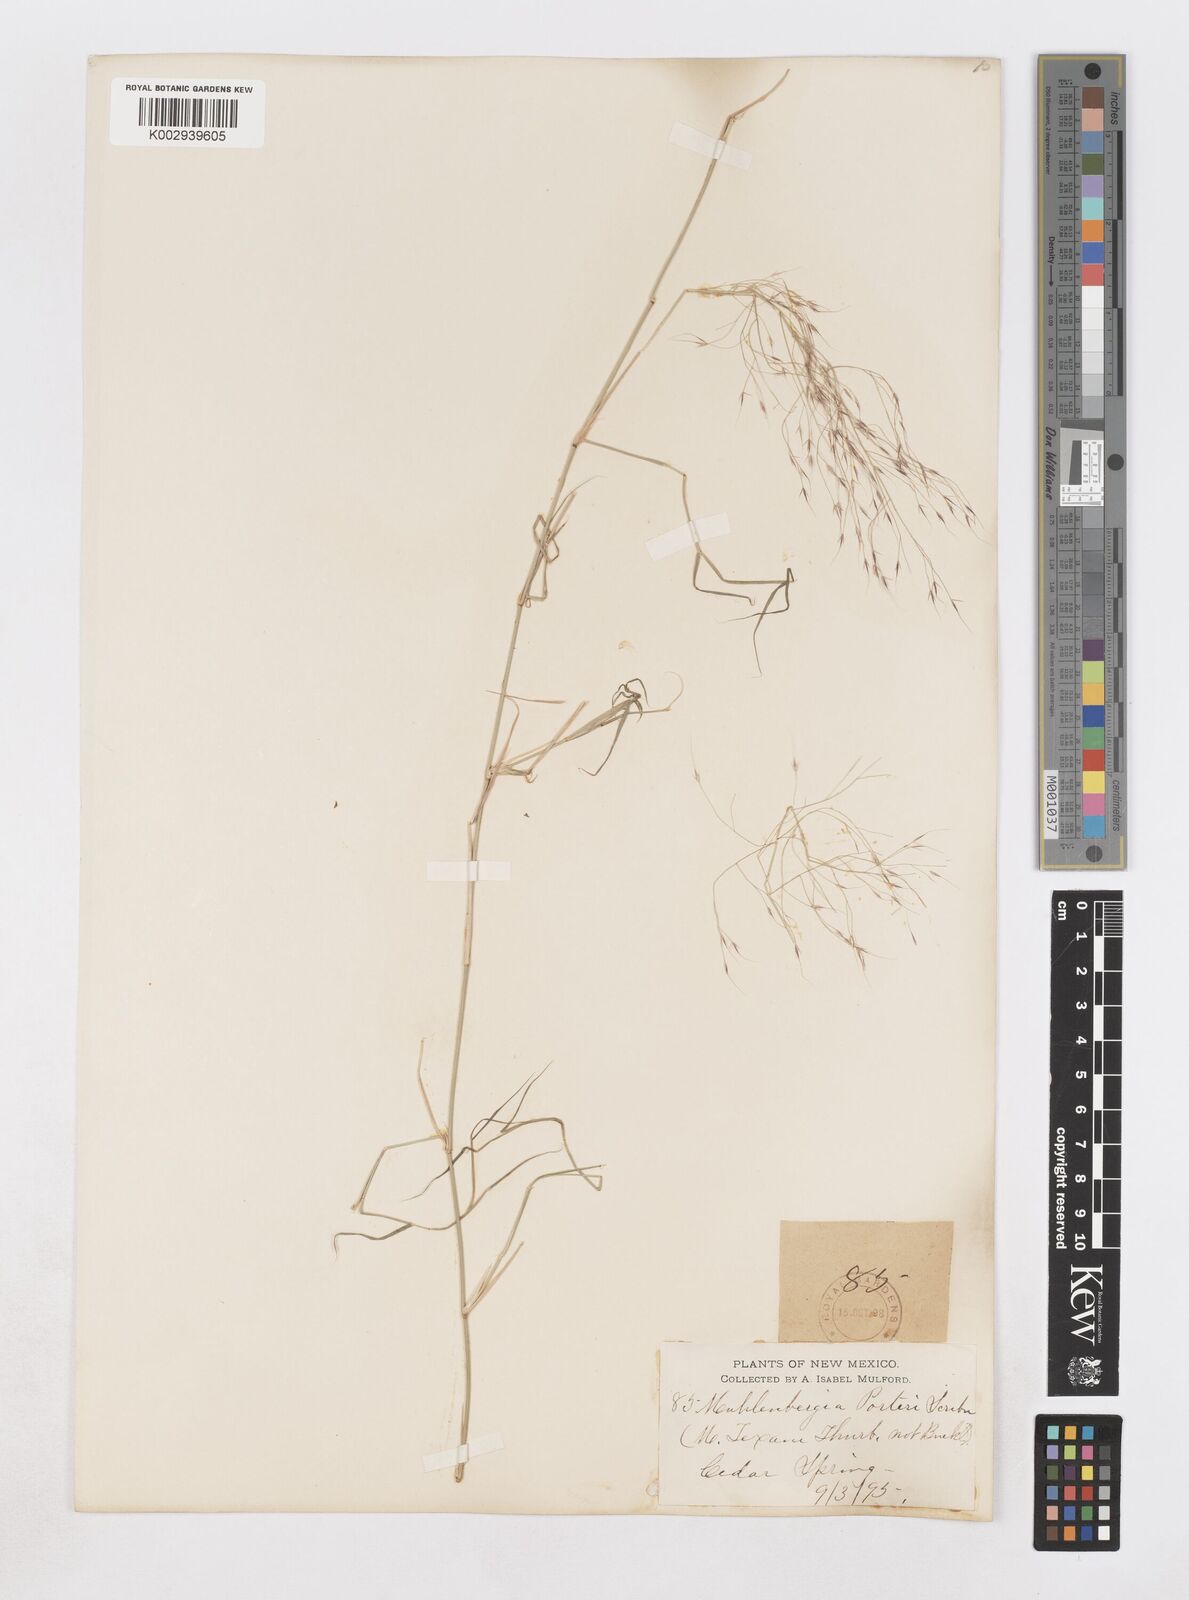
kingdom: Plantae
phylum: Tracheophyta
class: Liliopsida
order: Poales
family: Poaceae
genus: Muhlenbergia
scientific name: Muhlenbergia porteri
